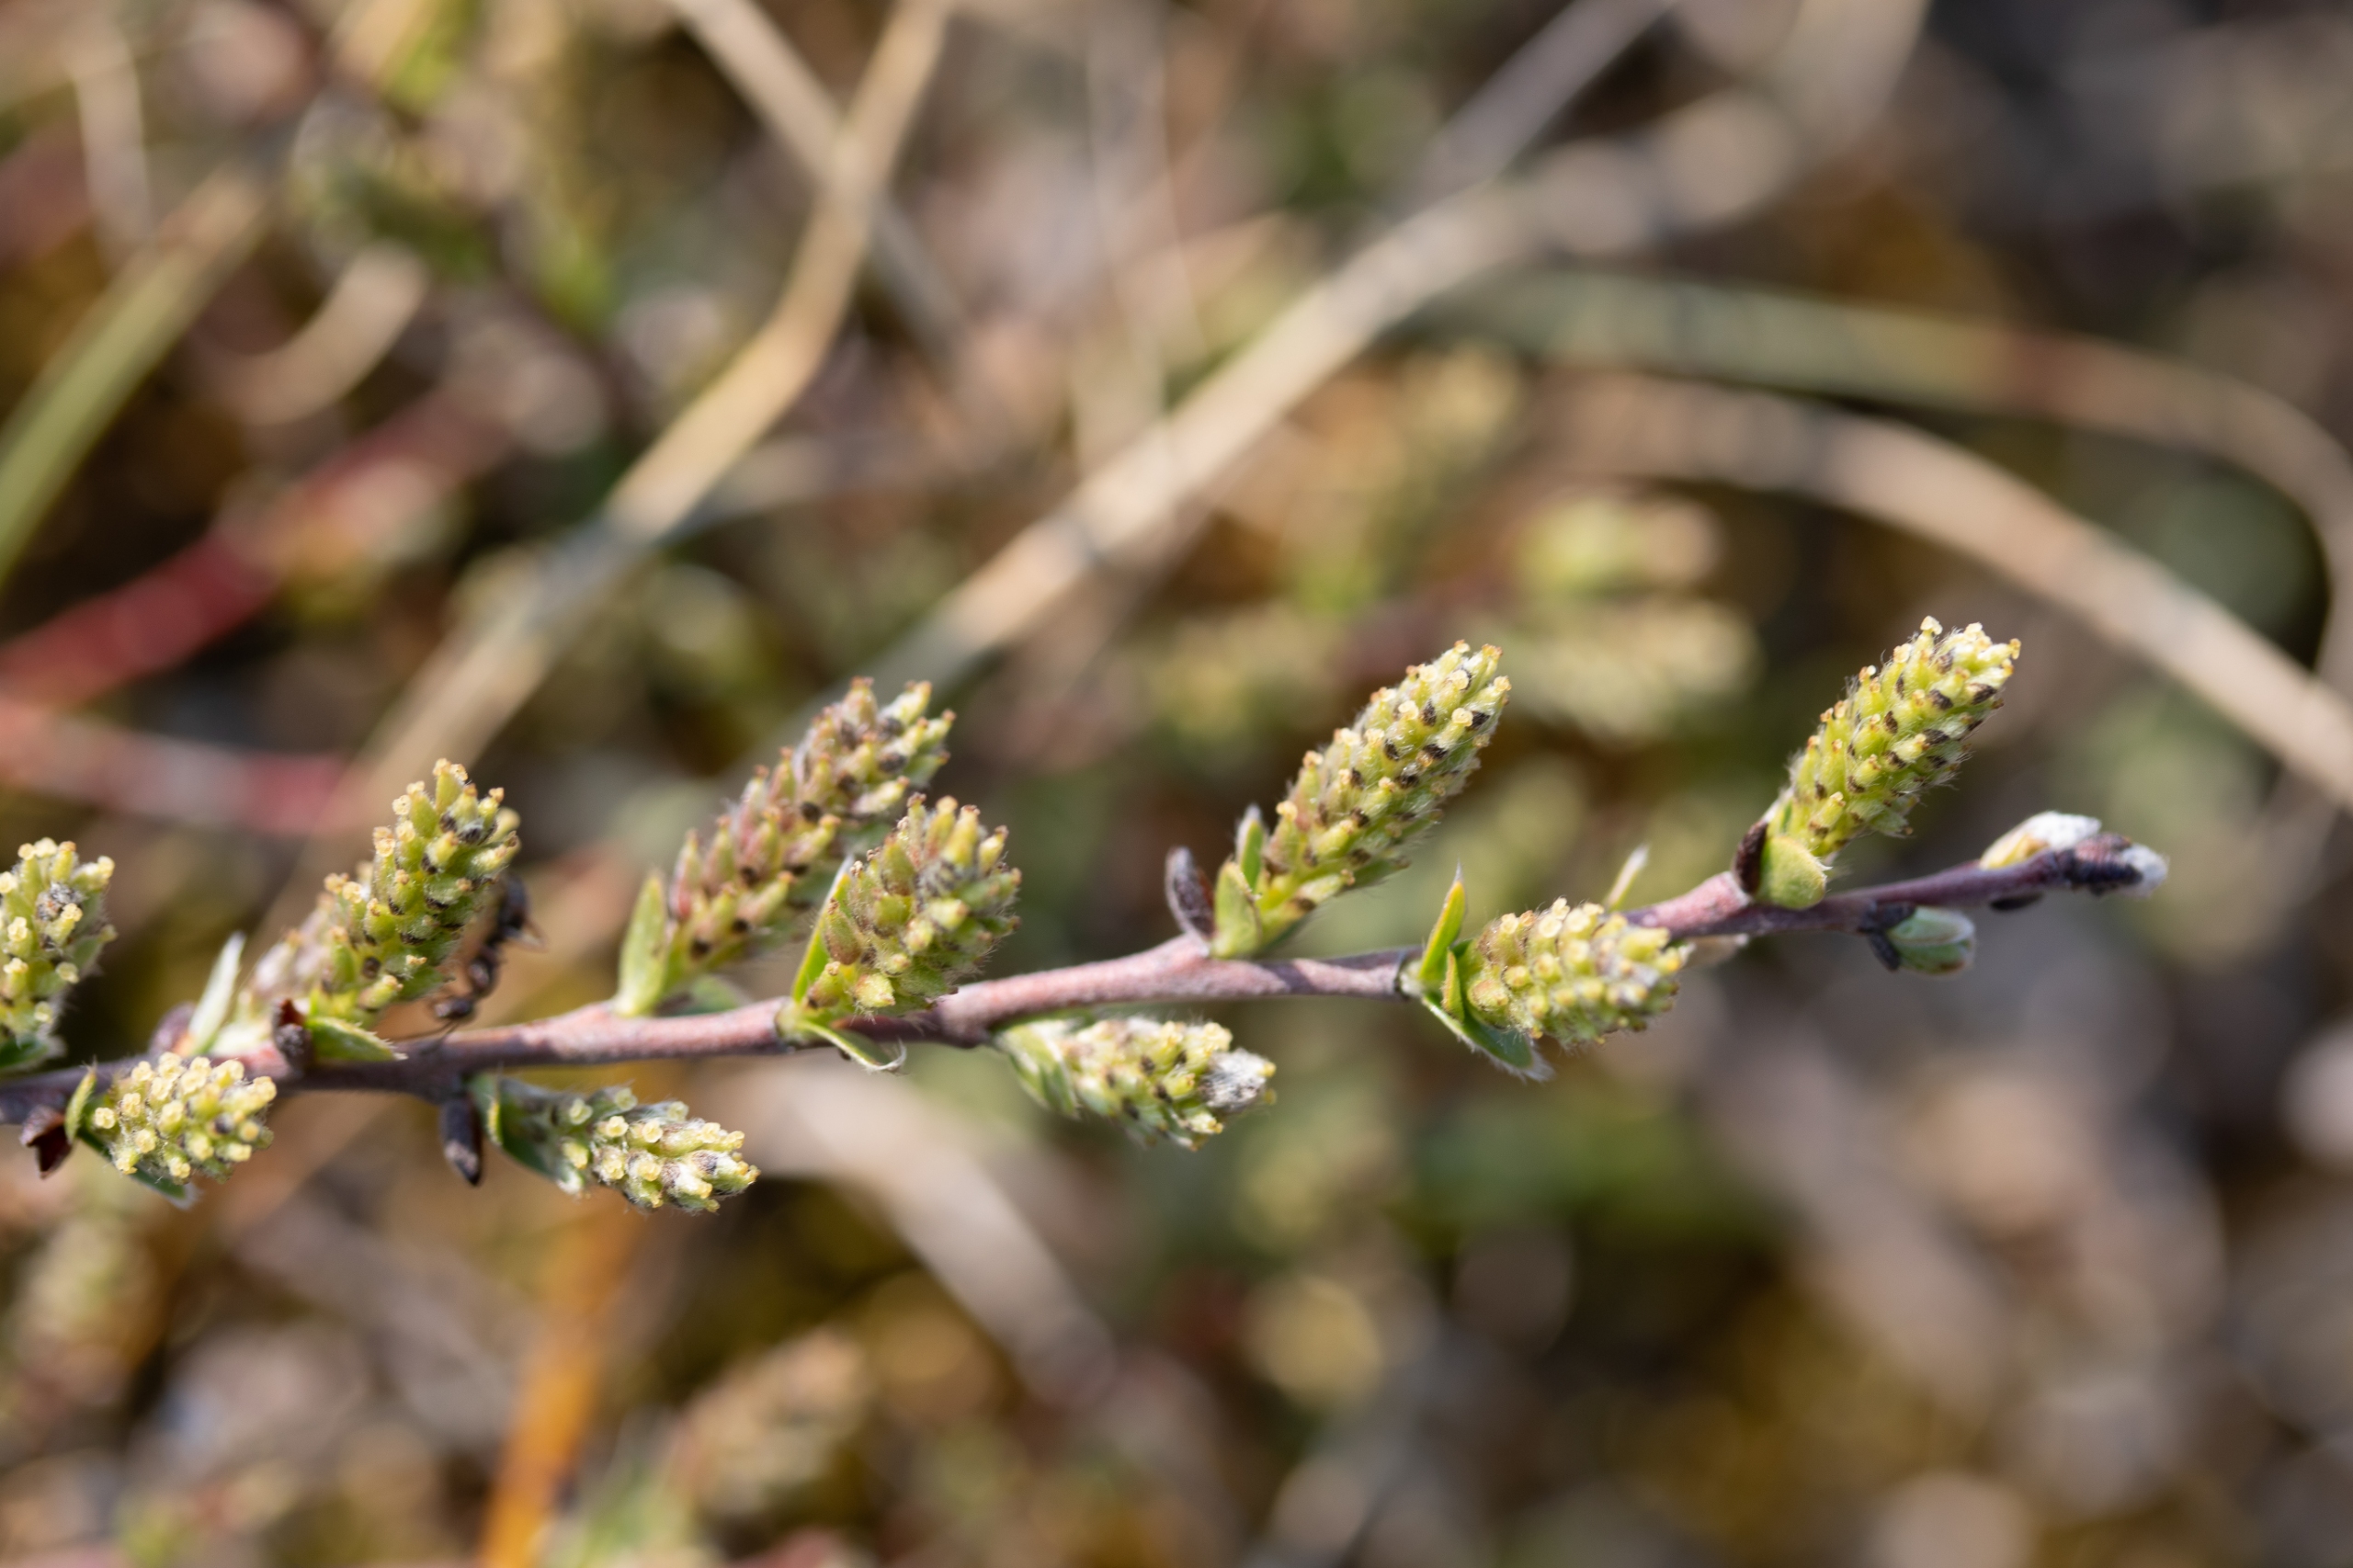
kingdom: Plantae
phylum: Tracheophyta
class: Magnoliopsida
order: Malpighiales
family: Salicaceae
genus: Salix
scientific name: Salix repens
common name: Krybende pil
